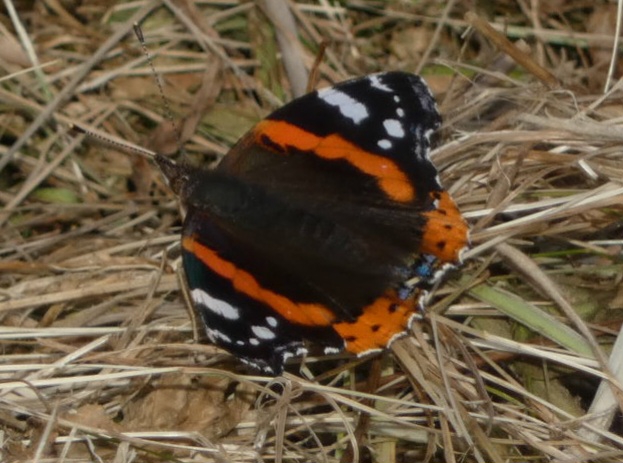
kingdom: Animalia
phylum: Arthropoda
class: Insecta
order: Lepidoptera
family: Nymphalidae
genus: Vanessa
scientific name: Vanessa atalanta
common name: Admiral
